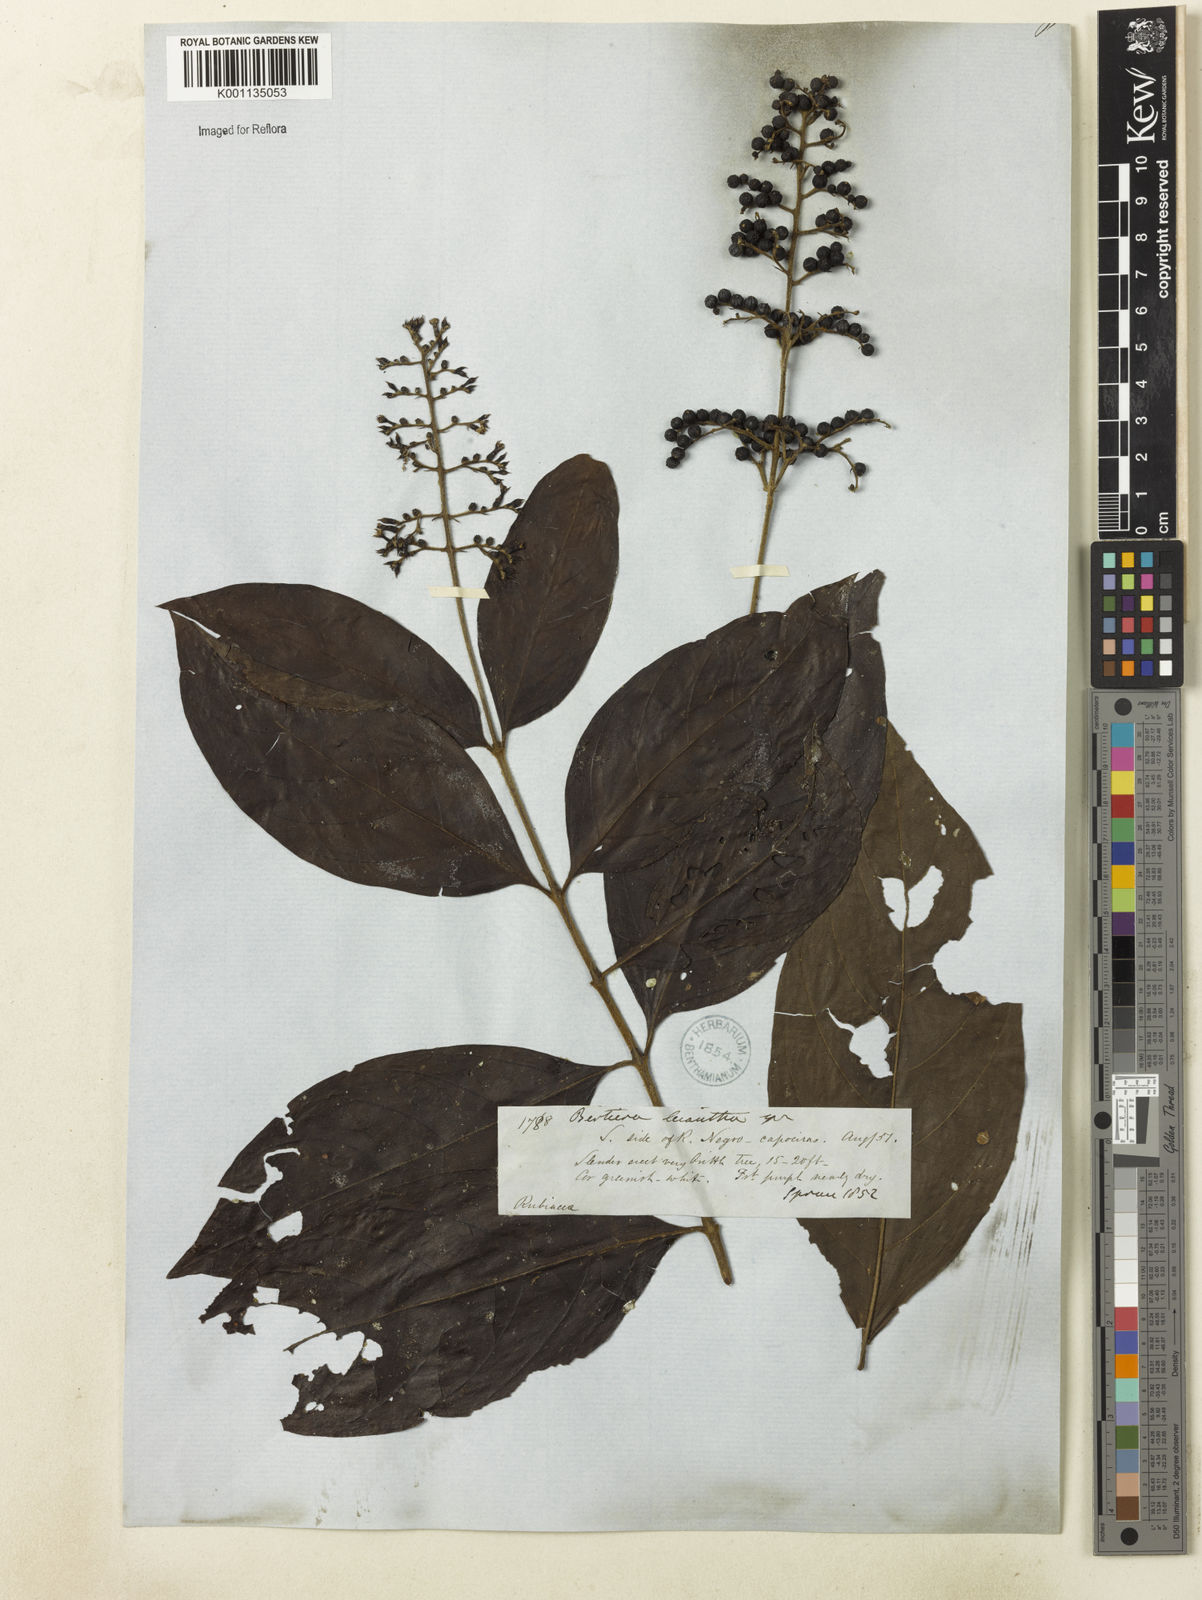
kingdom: Plantae
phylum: Tracheophyta
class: Magnoliopsida
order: Gentianales
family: Rubiaceae
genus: Bertiera
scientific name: Bertiera guianensis
